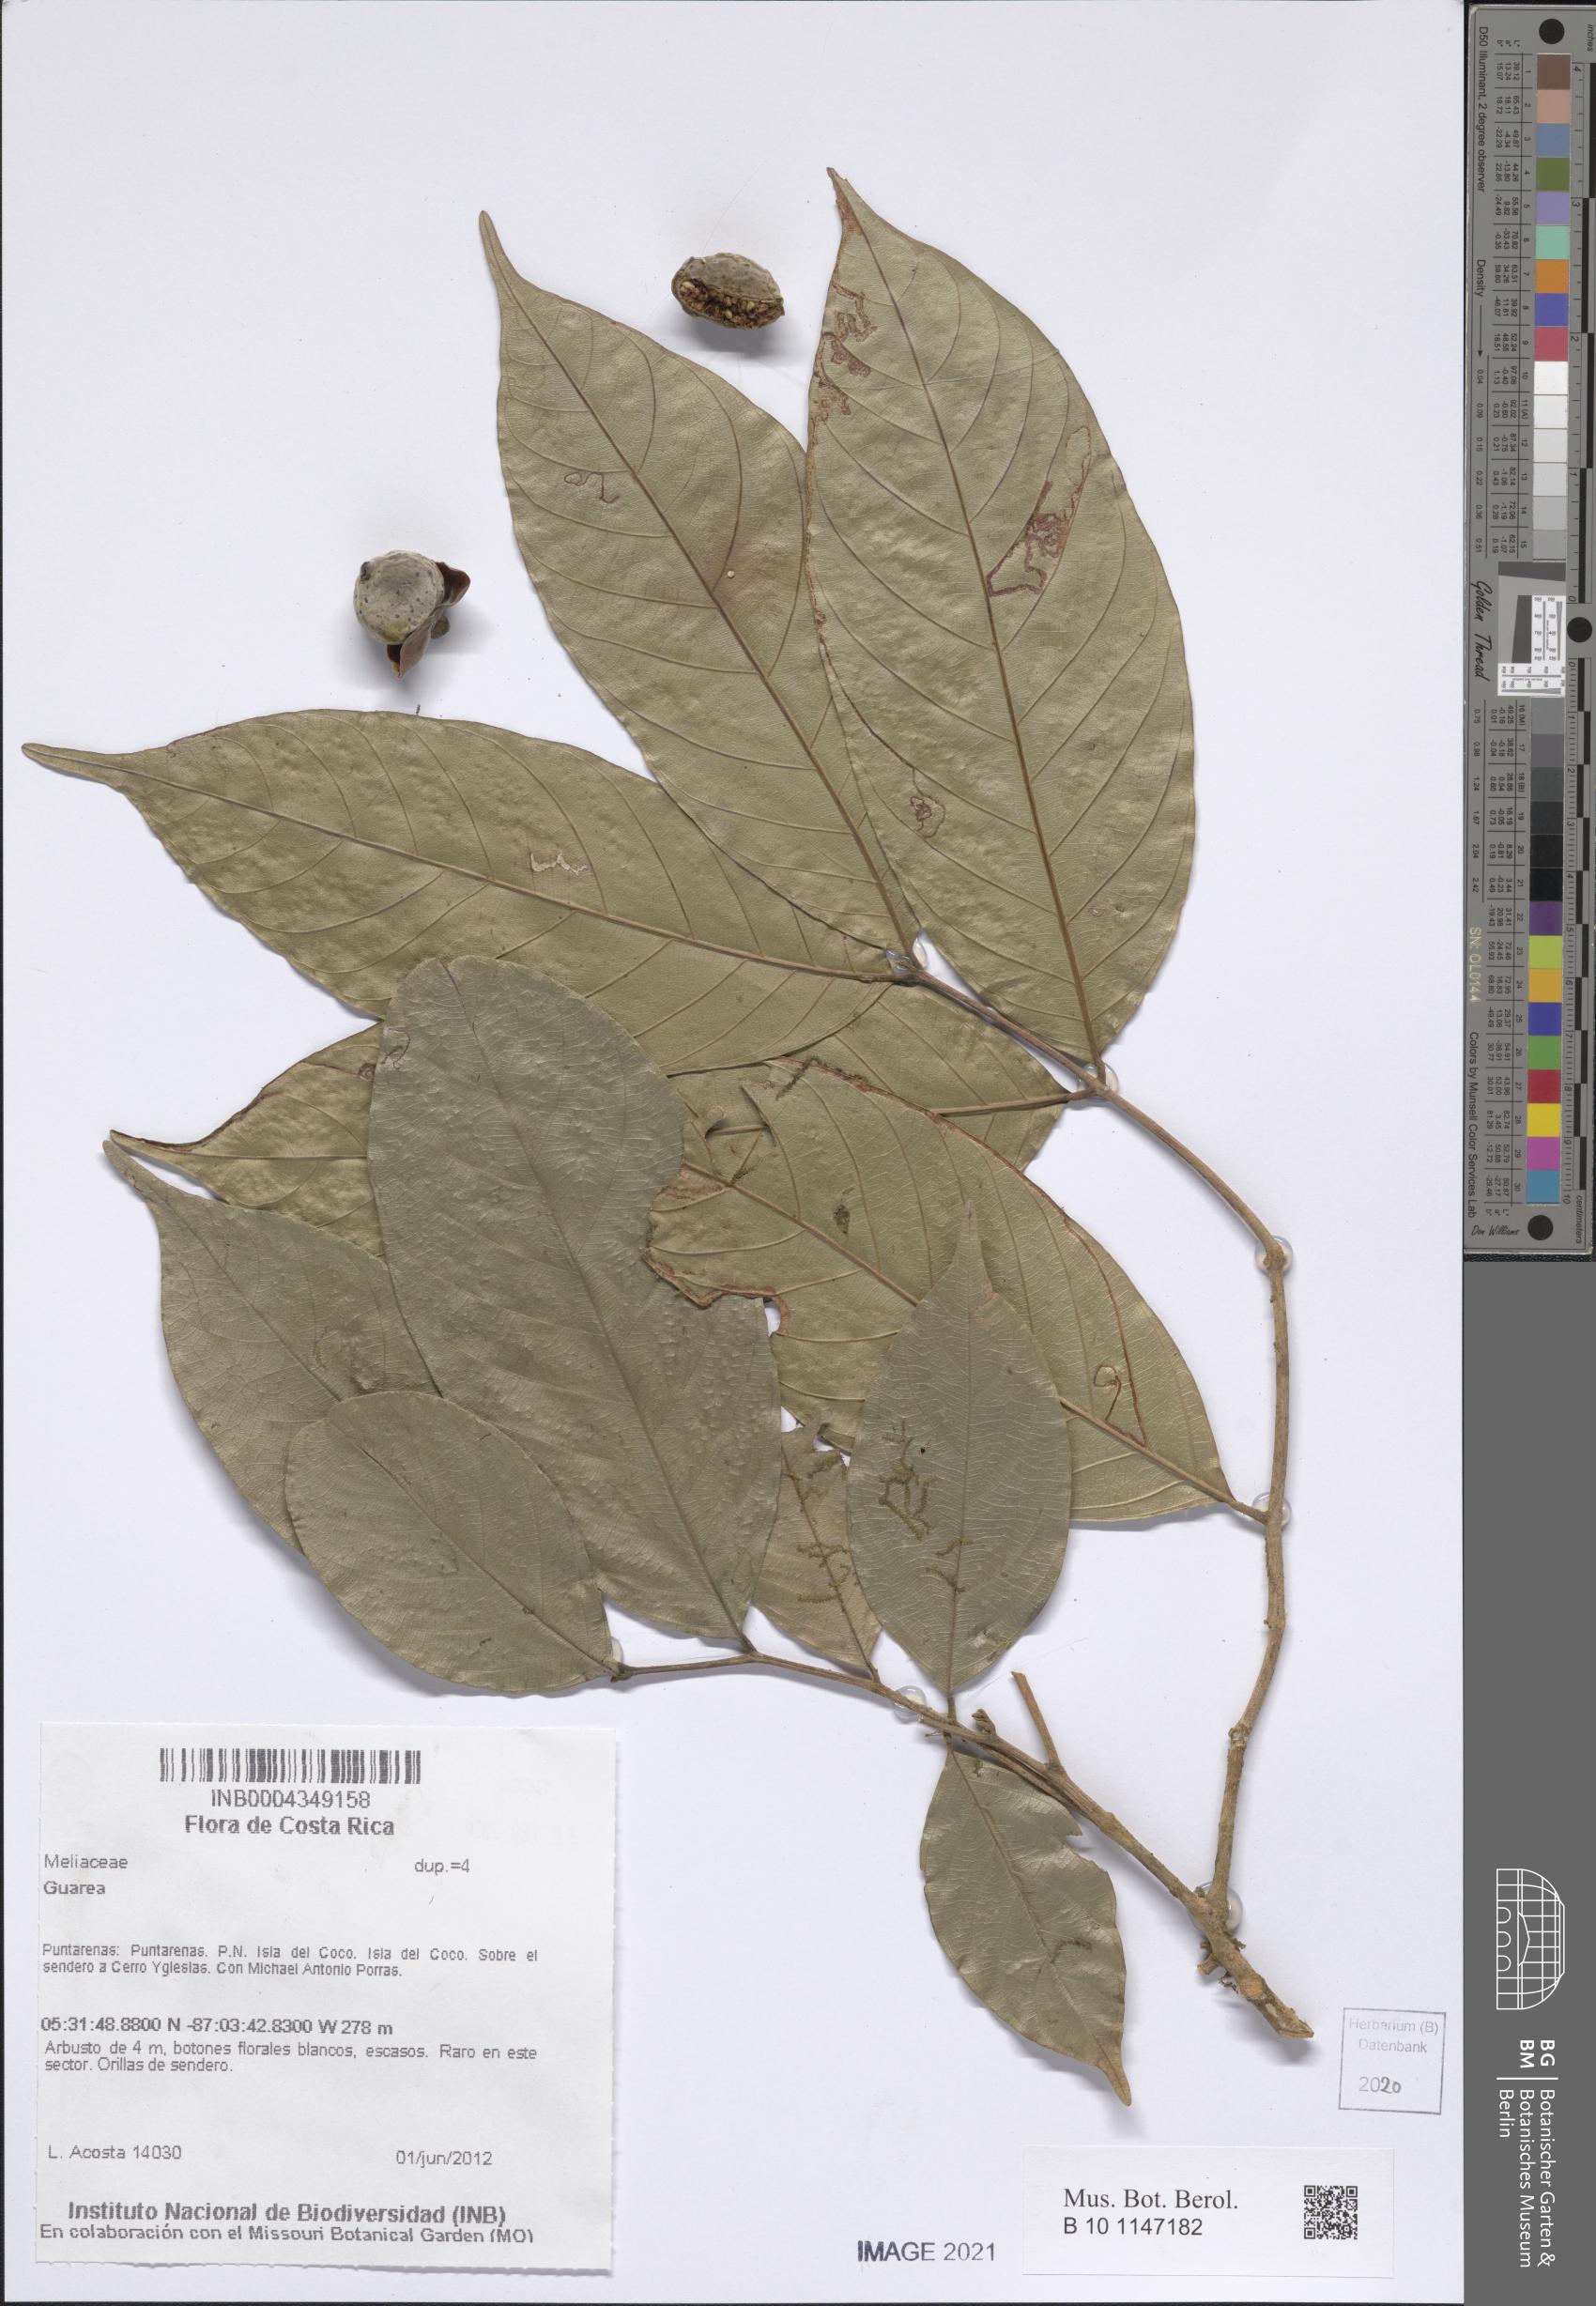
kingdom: Plantae
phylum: Tracheophyta
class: Magnoliopsida
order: Sapindales
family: Meliaceae
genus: Guarea
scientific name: Guarea
